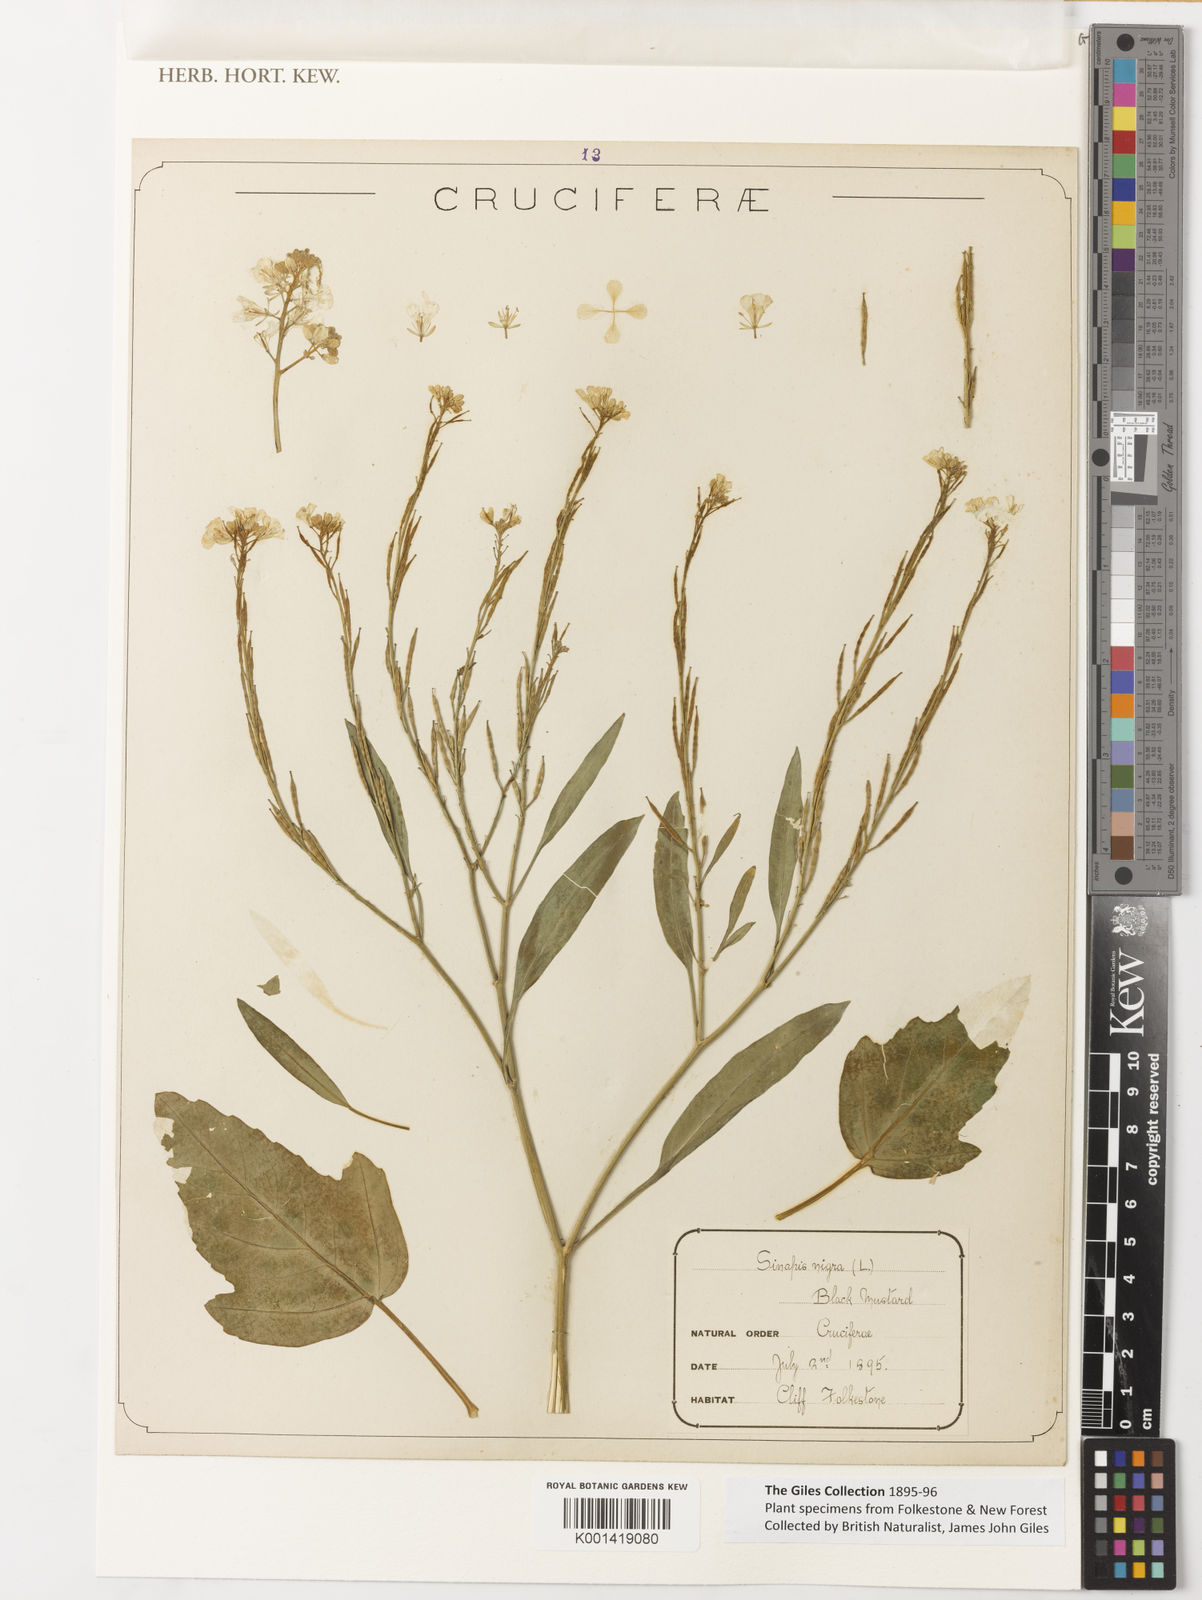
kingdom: Plantae
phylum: Tracheophyta
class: Magnoliopsida
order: Brassicales
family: Brassicaceae
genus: Brassica
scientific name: Brassica nigra
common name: Black mustard
